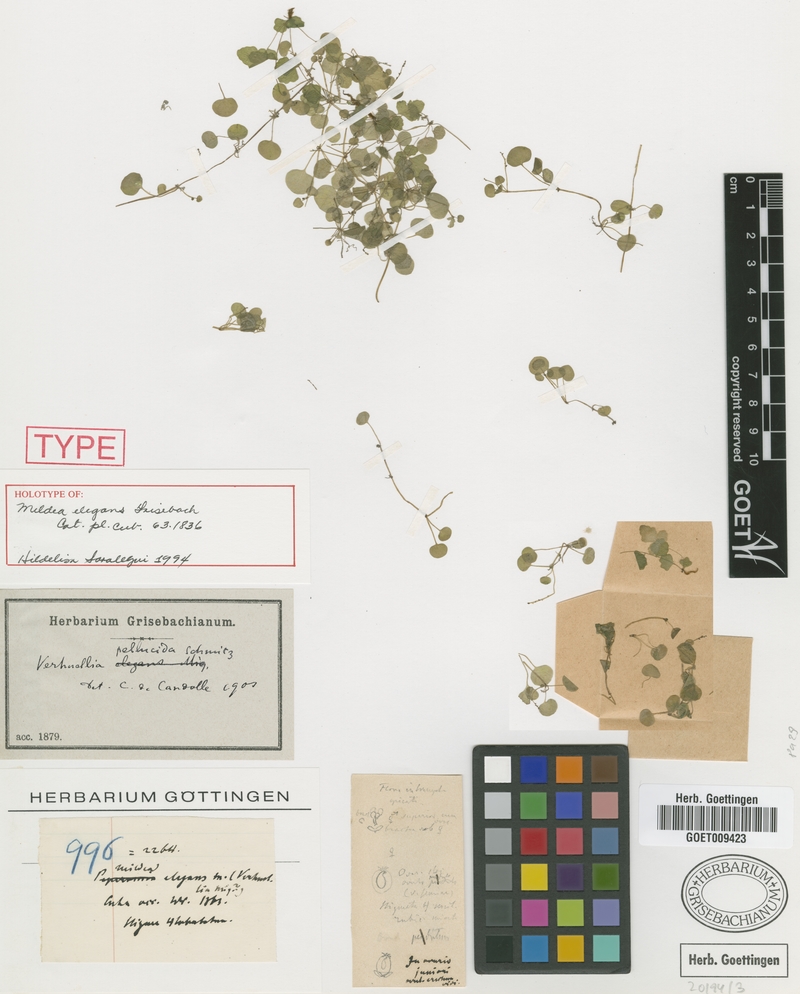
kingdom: Plantae
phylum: Tracheophyta
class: Magnoliopsida
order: Piperales
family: Piperaceae
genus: Verhuellia
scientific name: Verhuellia pellucida
